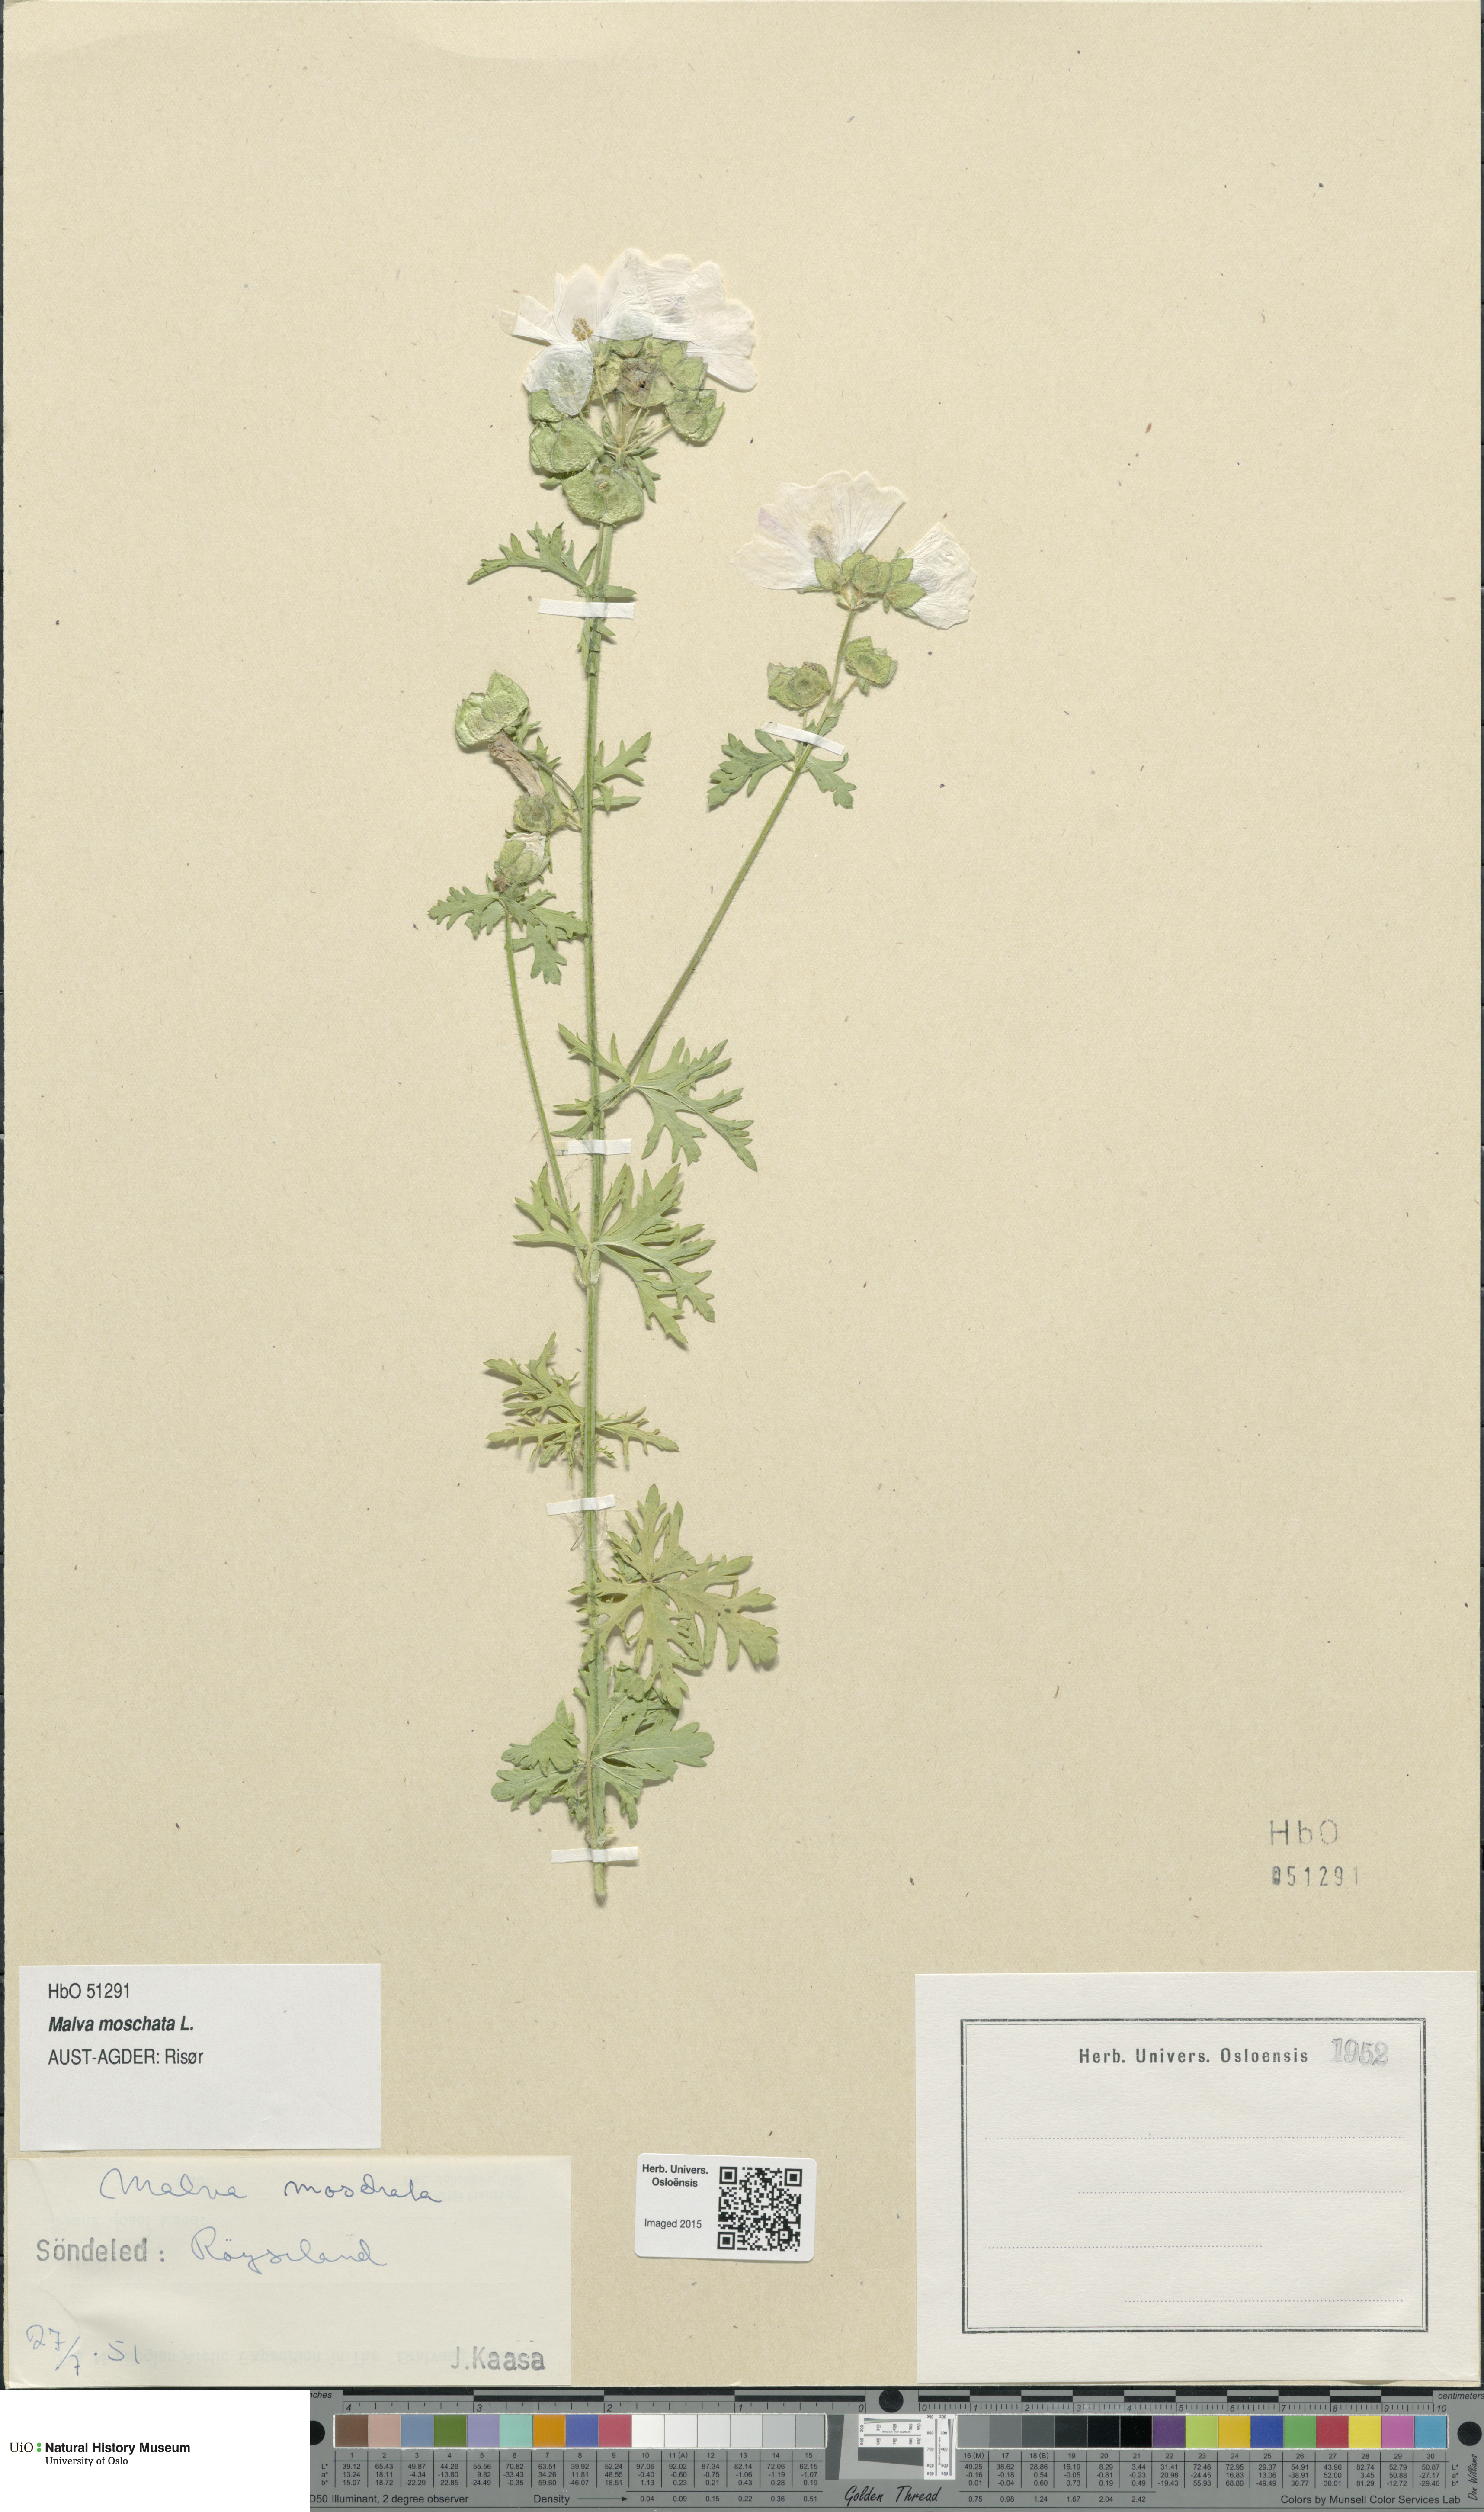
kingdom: Plantae
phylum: Tracheophyta
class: Magnoliopsida
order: Malvales
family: Malvaceae
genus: Malva
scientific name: Malva moschata
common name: Musk mallow
